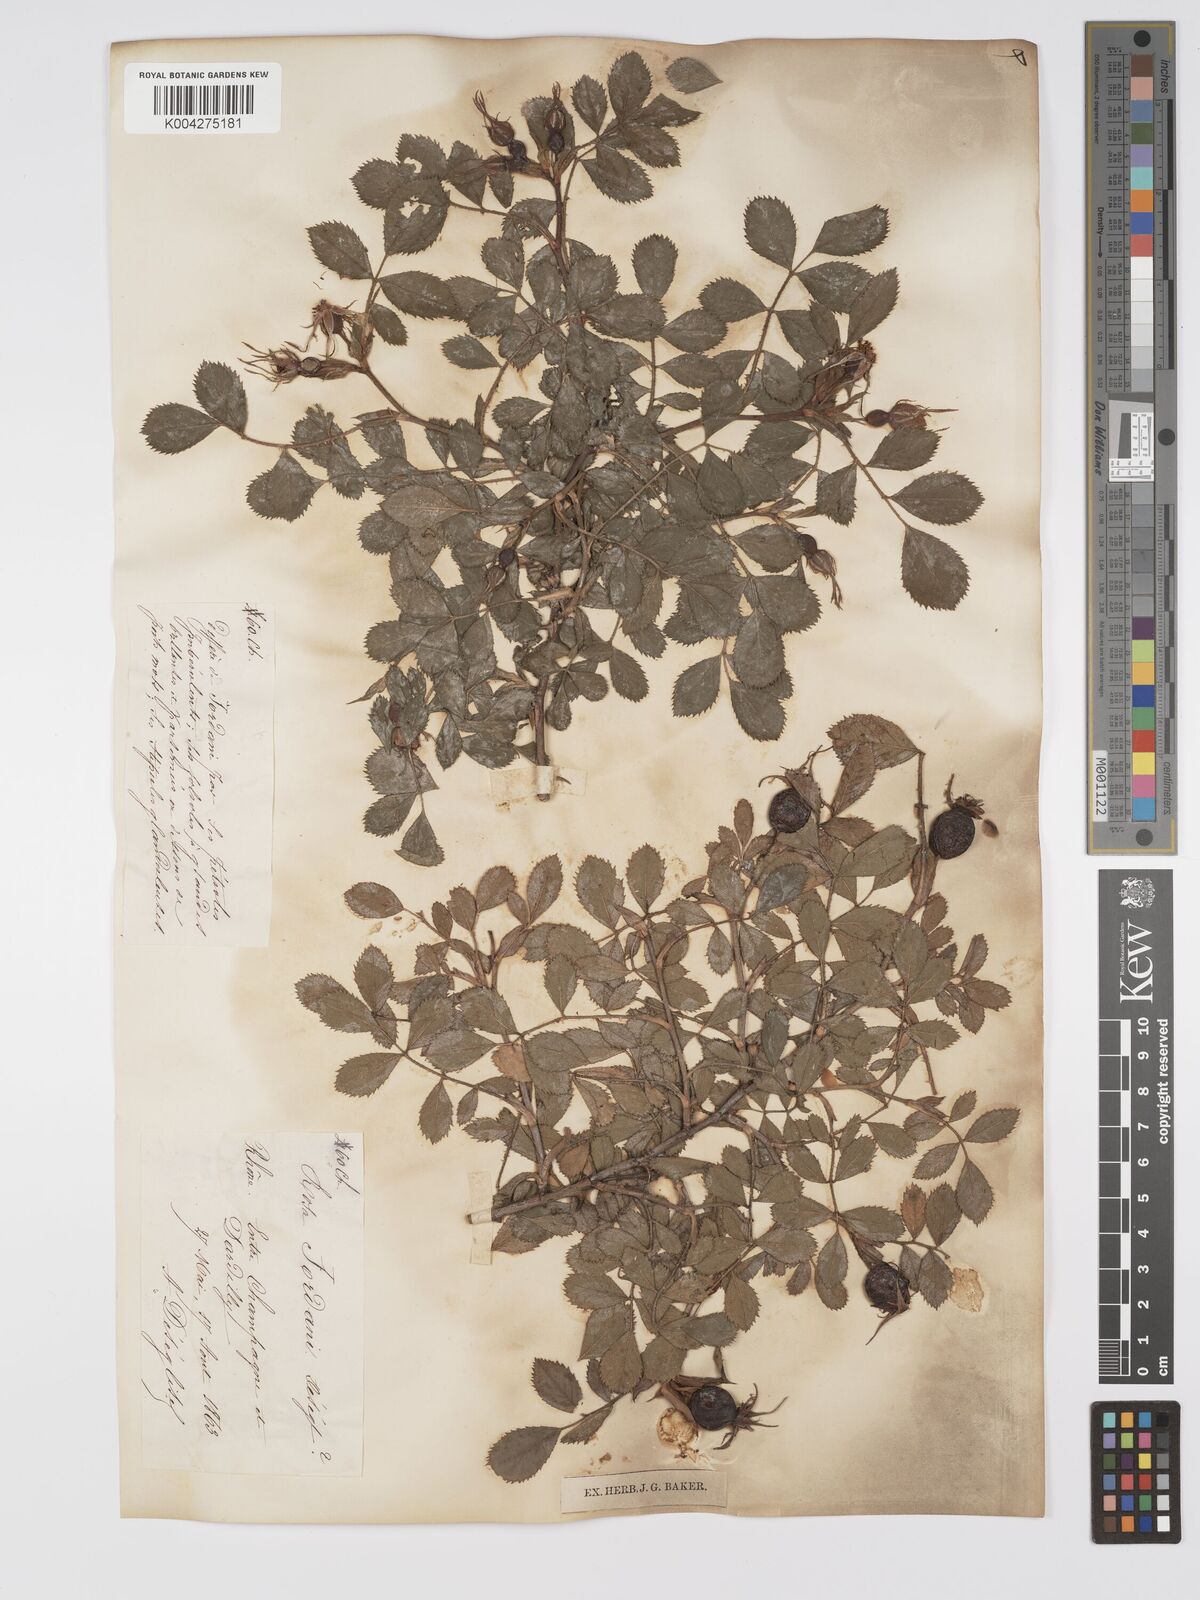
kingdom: Plantae
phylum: Tracheophyta
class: Magnoliopsida
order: Rosales
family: Rosaceae
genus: Rosa
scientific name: Rosa
